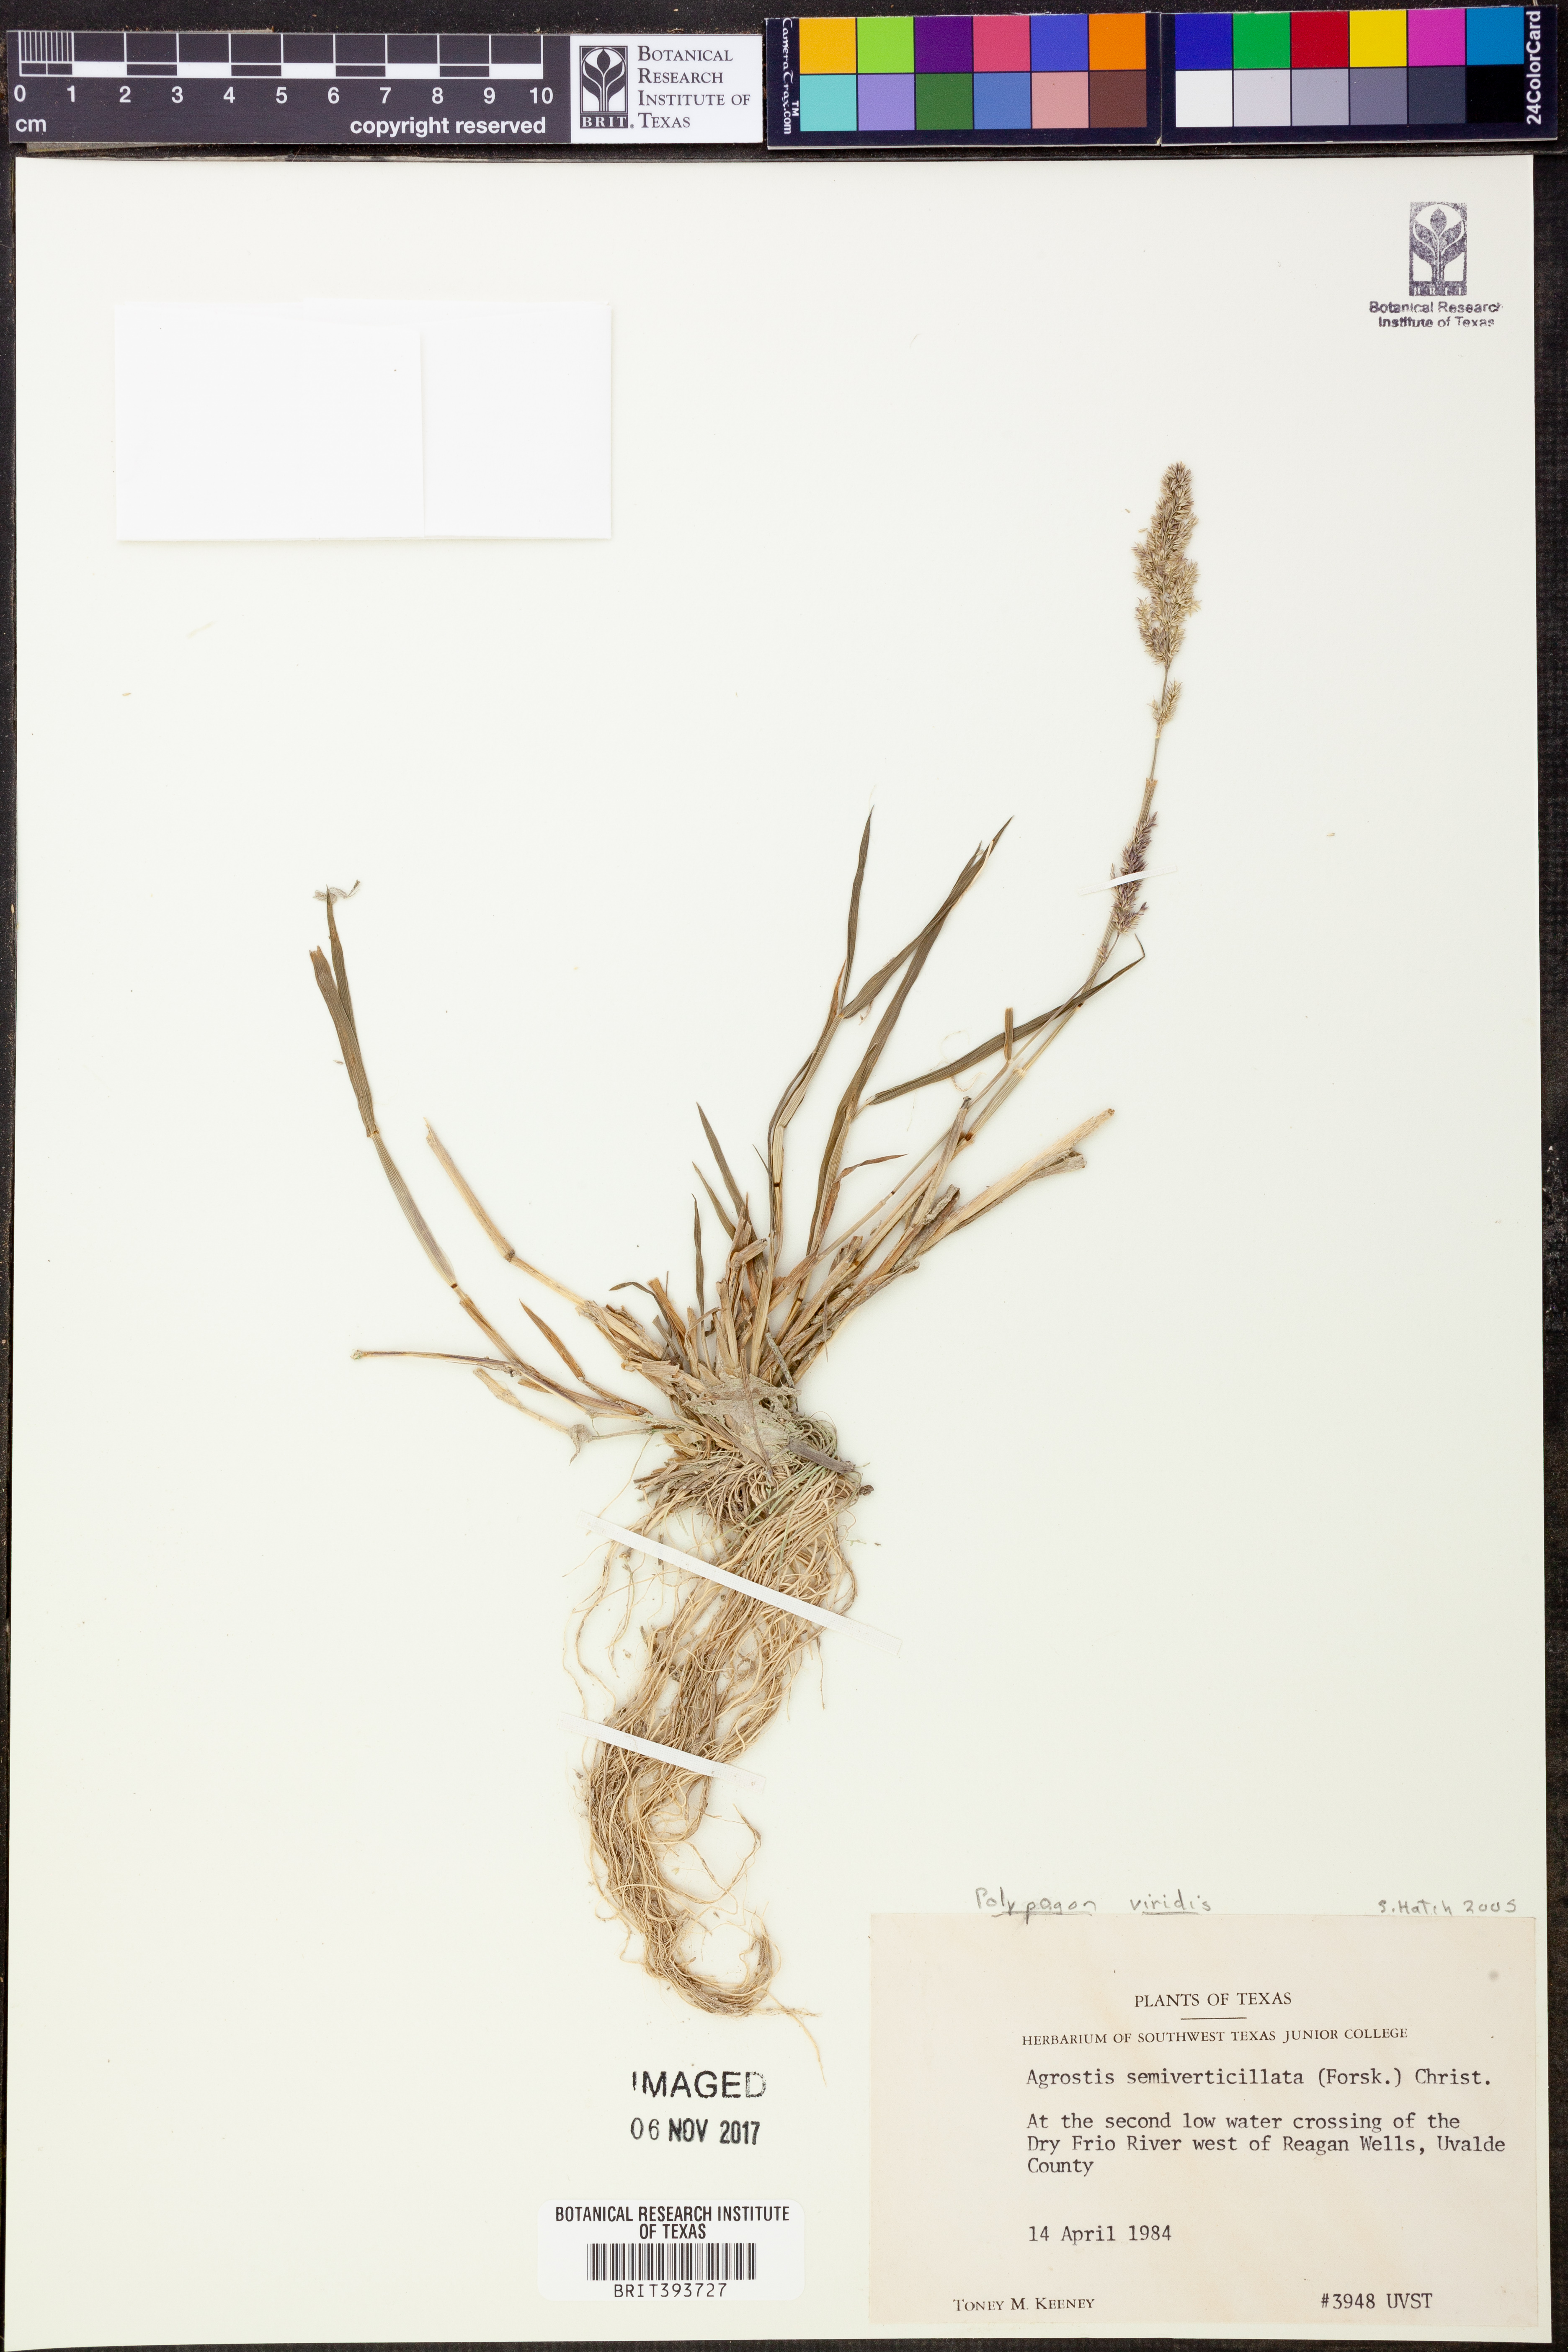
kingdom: Plantae
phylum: Tracheophyta
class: Liliopsida
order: Poales
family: Poaceae
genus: Polypogon
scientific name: Polypogon viridis
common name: Water bent
